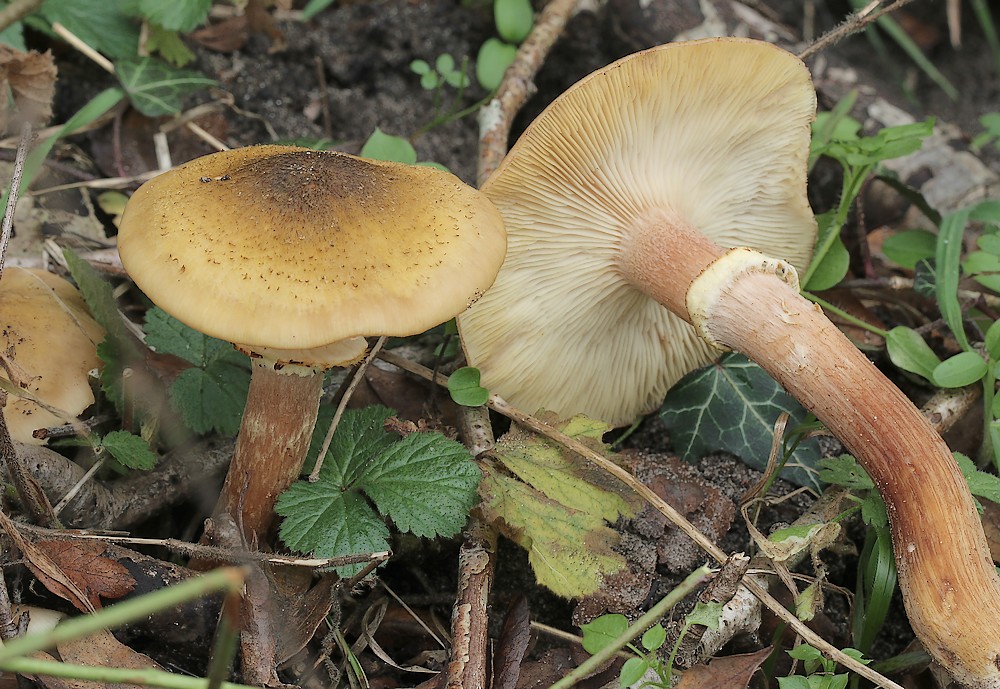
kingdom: Fungi
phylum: Basidiomycota
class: Agaricomycetes
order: Agaricales
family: Physalacriaceae
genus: Armillaria
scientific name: Armillaria mellea
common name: ægte honningsvamp
